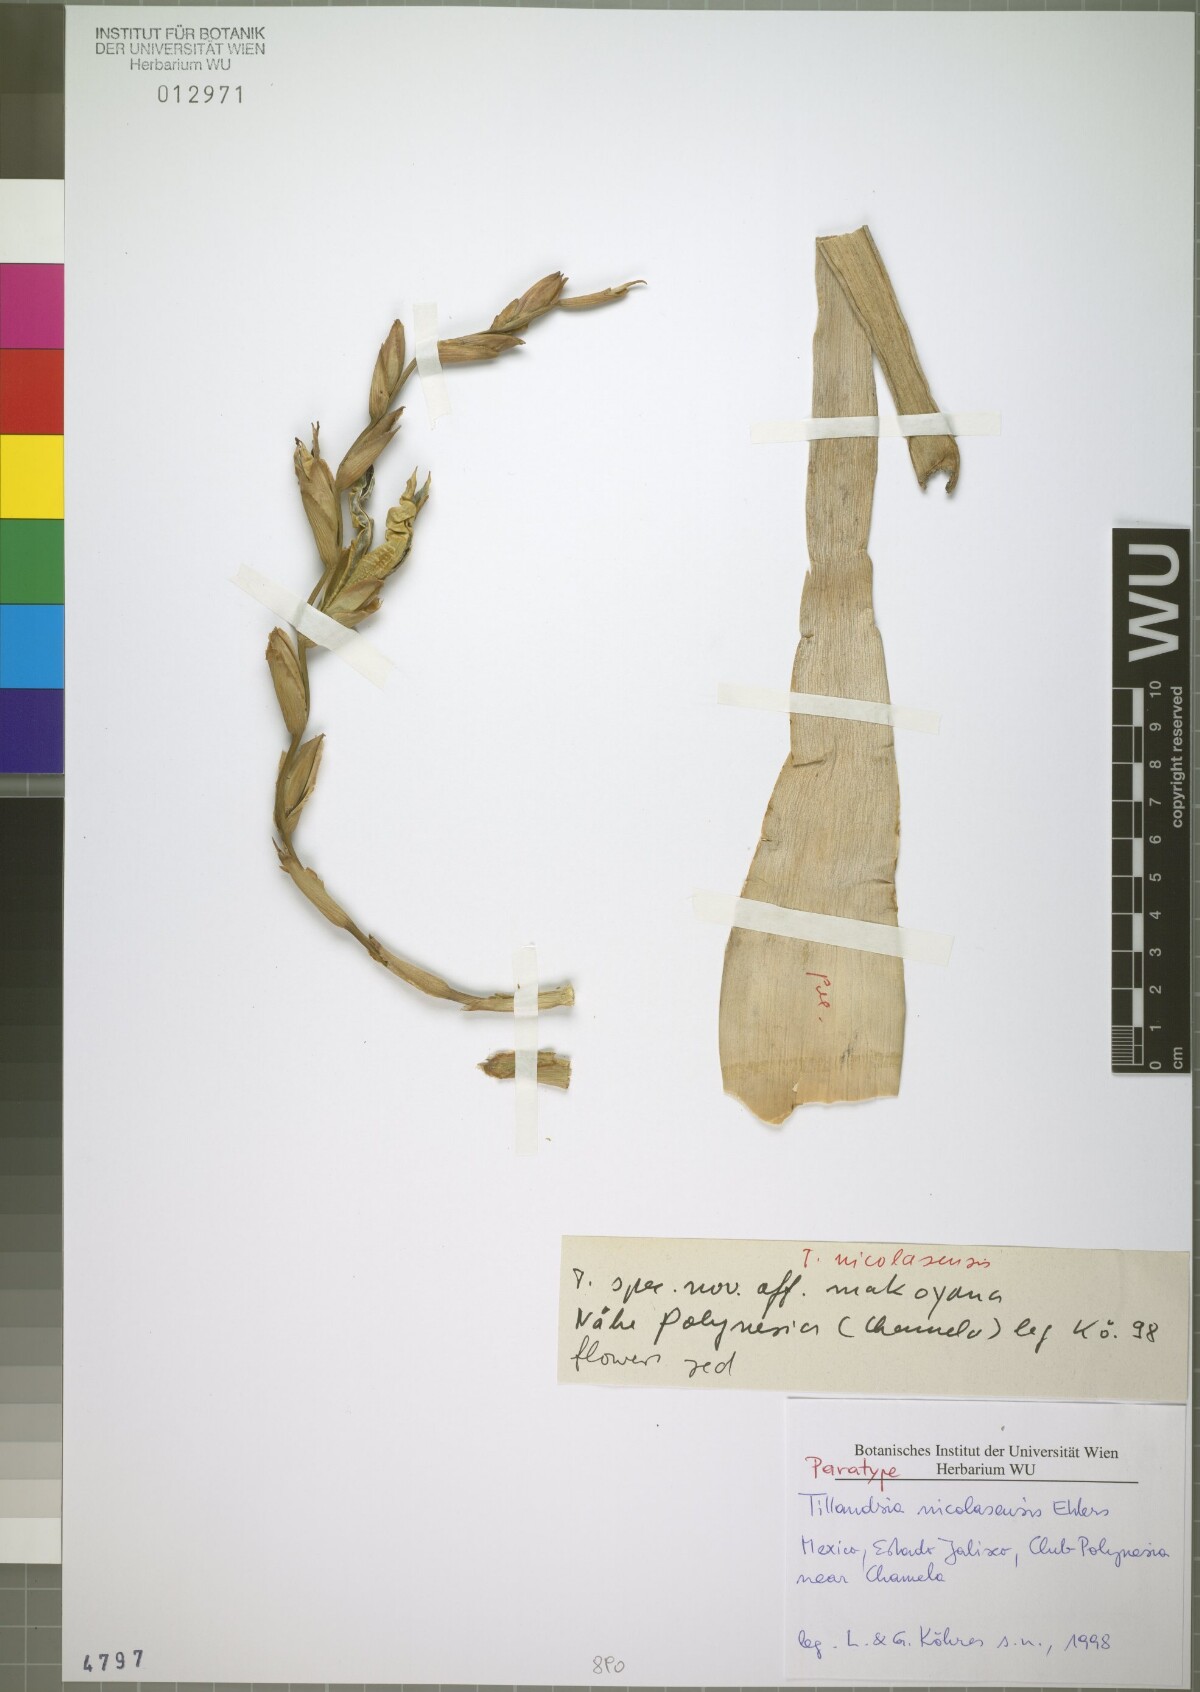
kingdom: Plantae
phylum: Tracheophyta
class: Liliopsida
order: Poales
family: Bromeliaceae
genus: Tillandsia
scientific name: Tillandsia nicolasensis
